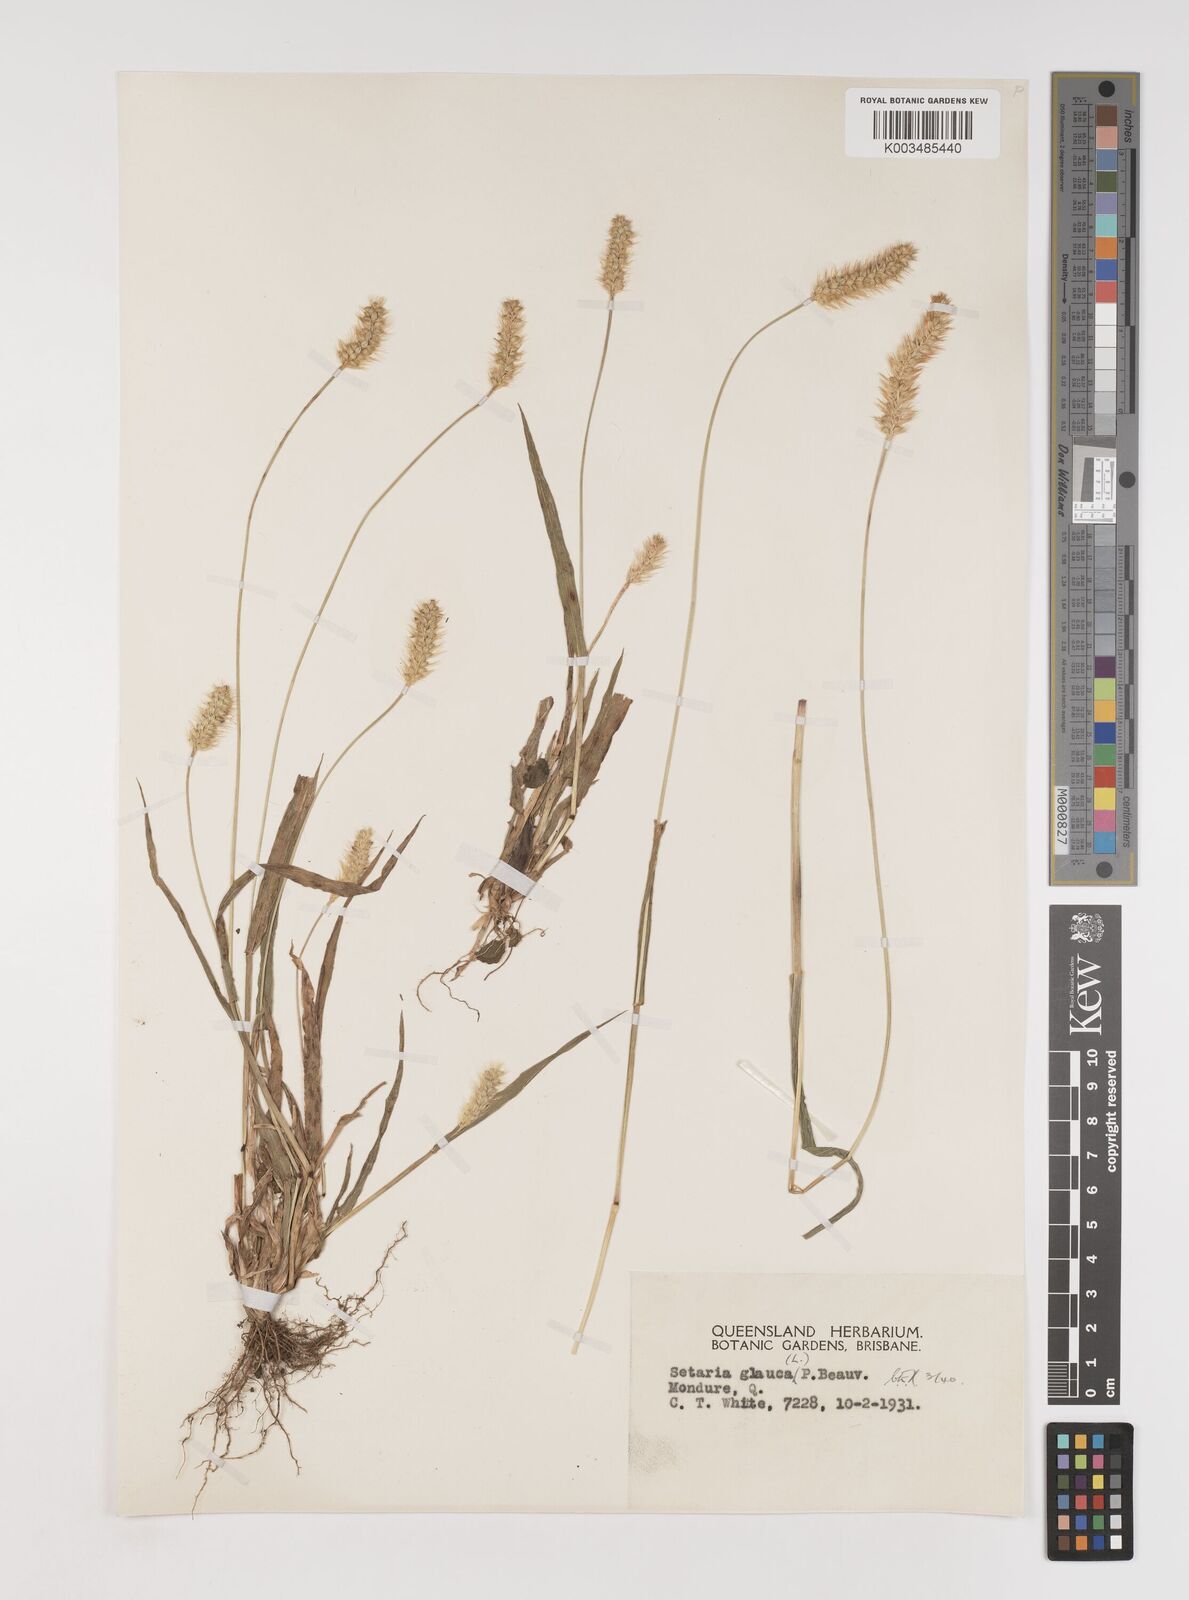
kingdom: Plantae
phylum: Tracheophyta
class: Liliopsida
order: Poales
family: Poaceae
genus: Setaria
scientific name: Setaria pumila
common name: Yellow bristle-grass
